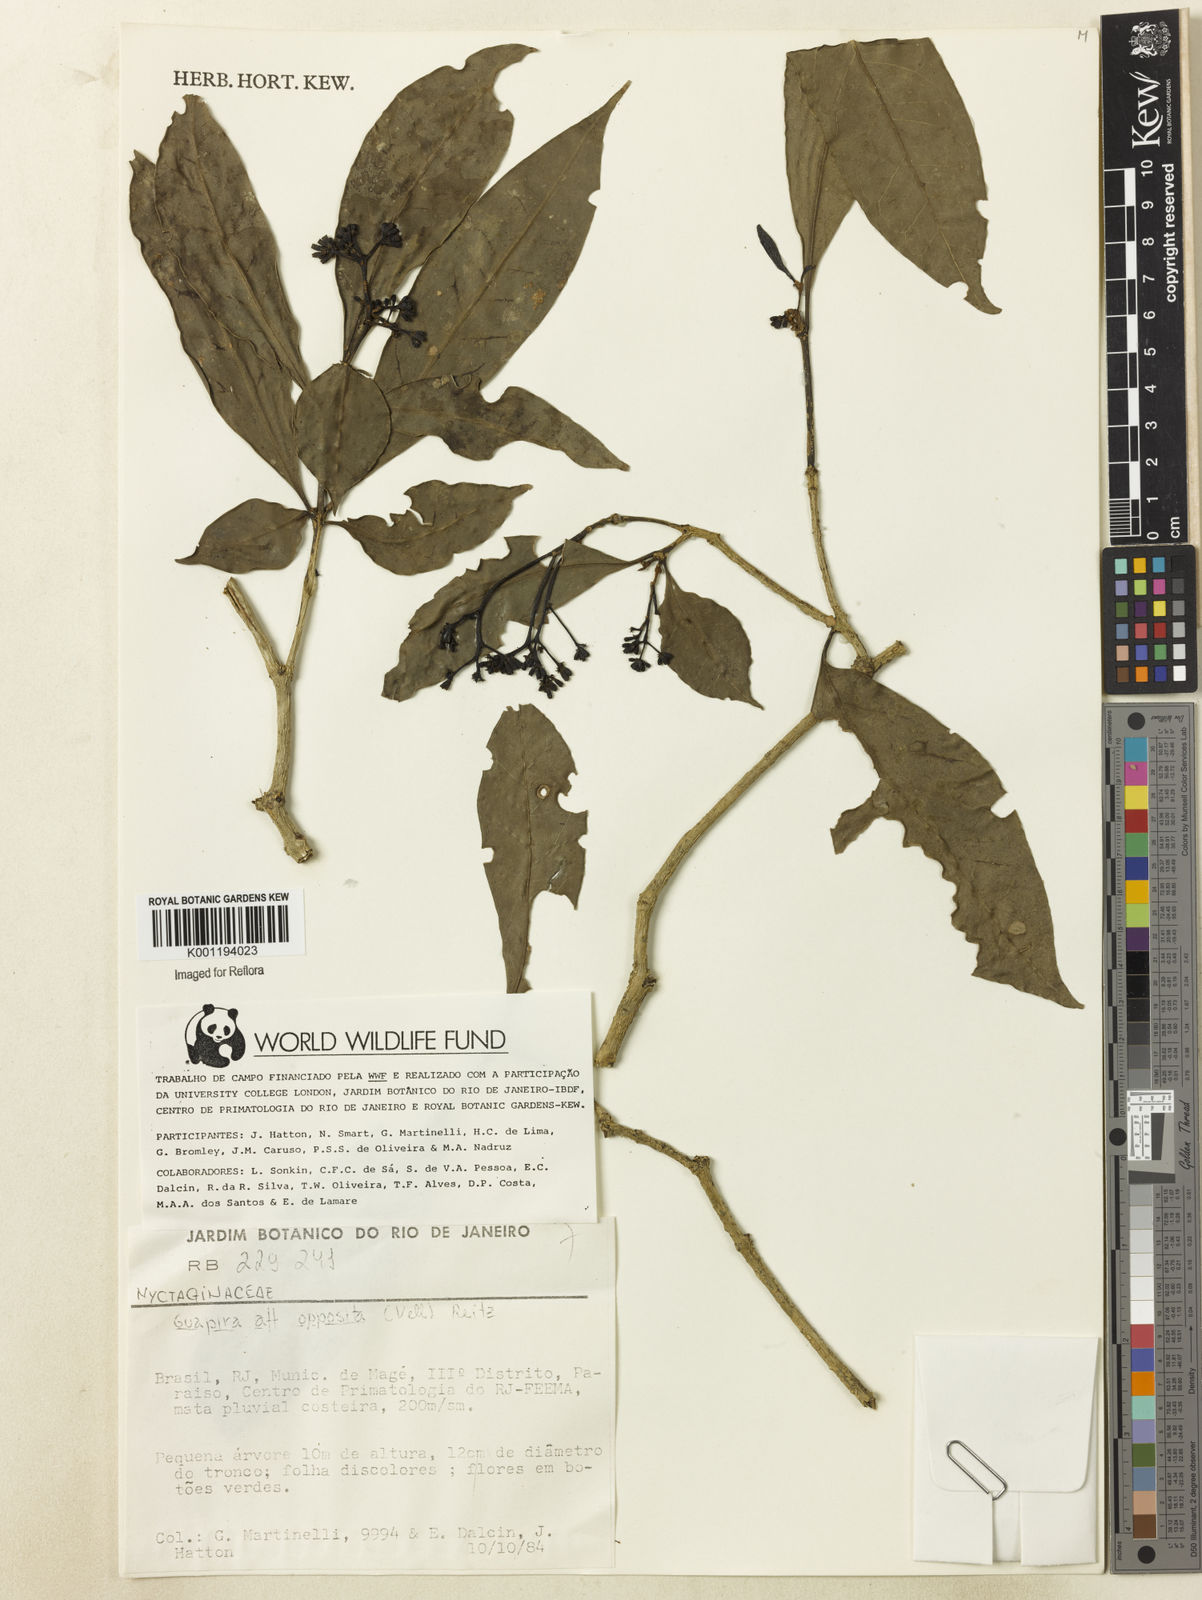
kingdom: Plantae
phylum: Tracheophyta
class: Magnoliopsida
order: Caryophyllales
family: Nyctaginaceae
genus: Guapira
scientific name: Guapira opposita
